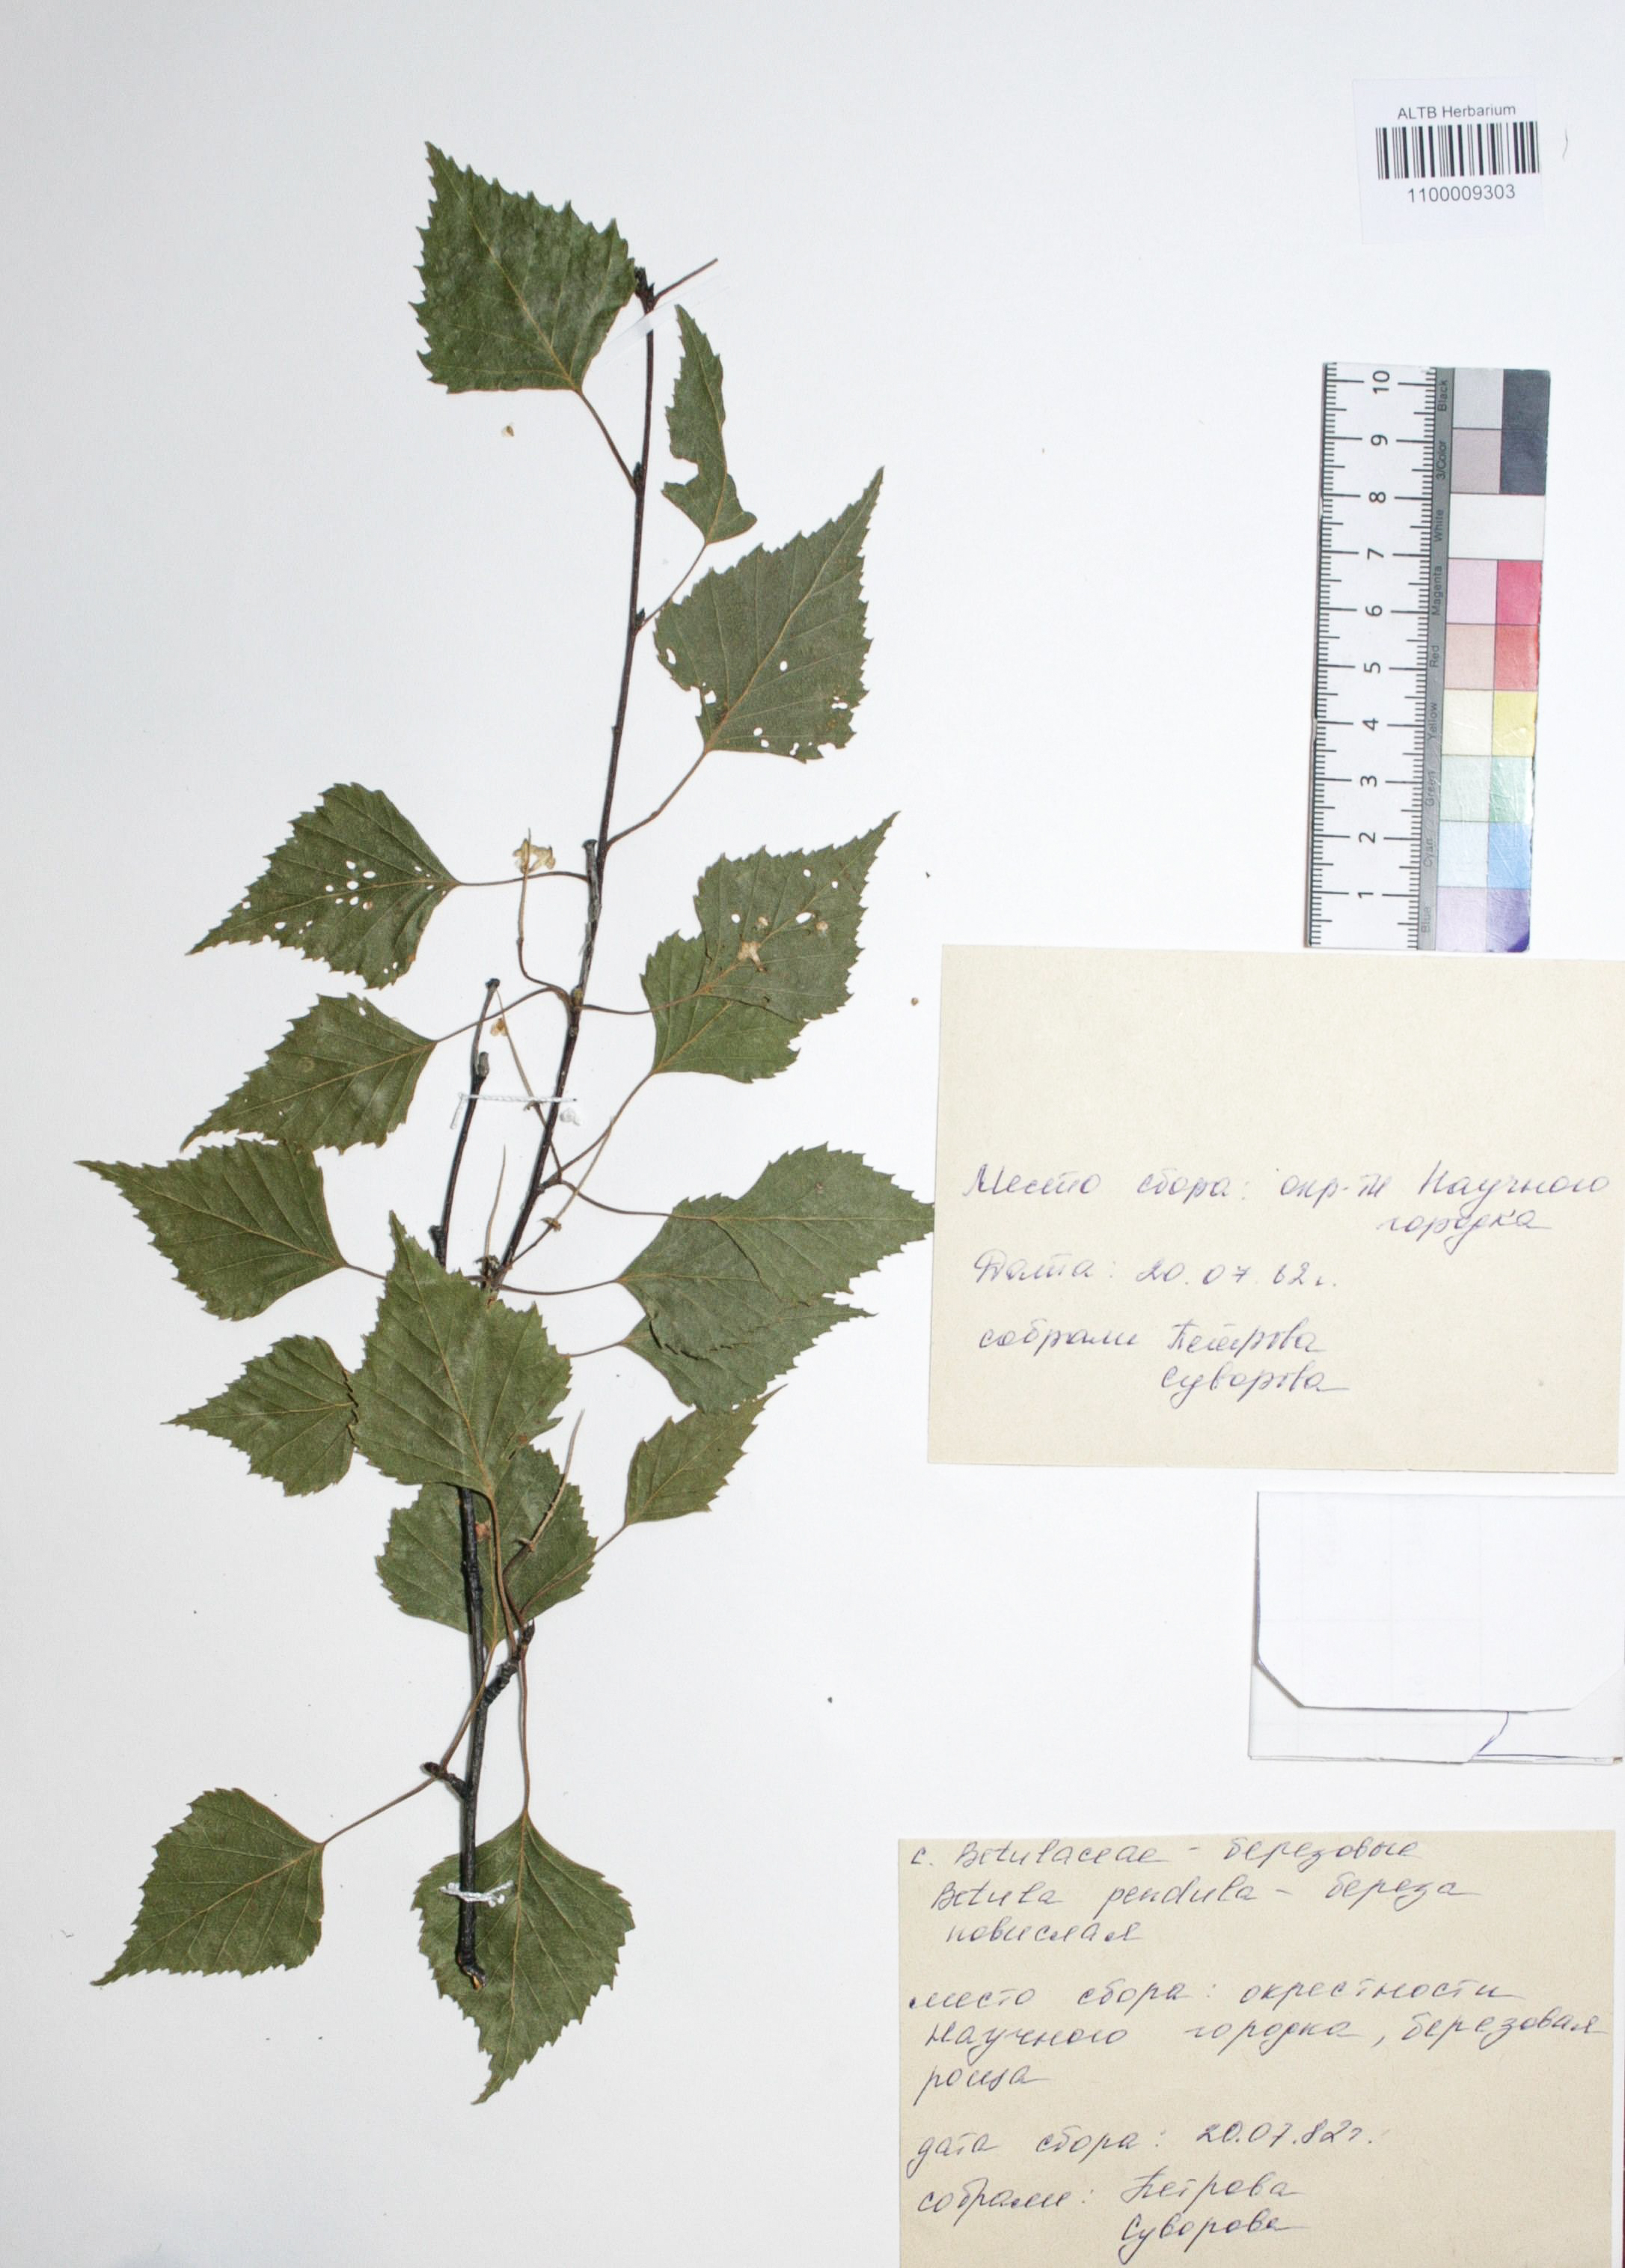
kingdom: Plantae
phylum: Tracheophyta
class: Magnoliopsida
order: Fagales
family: Betulaceae
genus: Betula
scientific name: Betula pendula
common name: Silver birch
